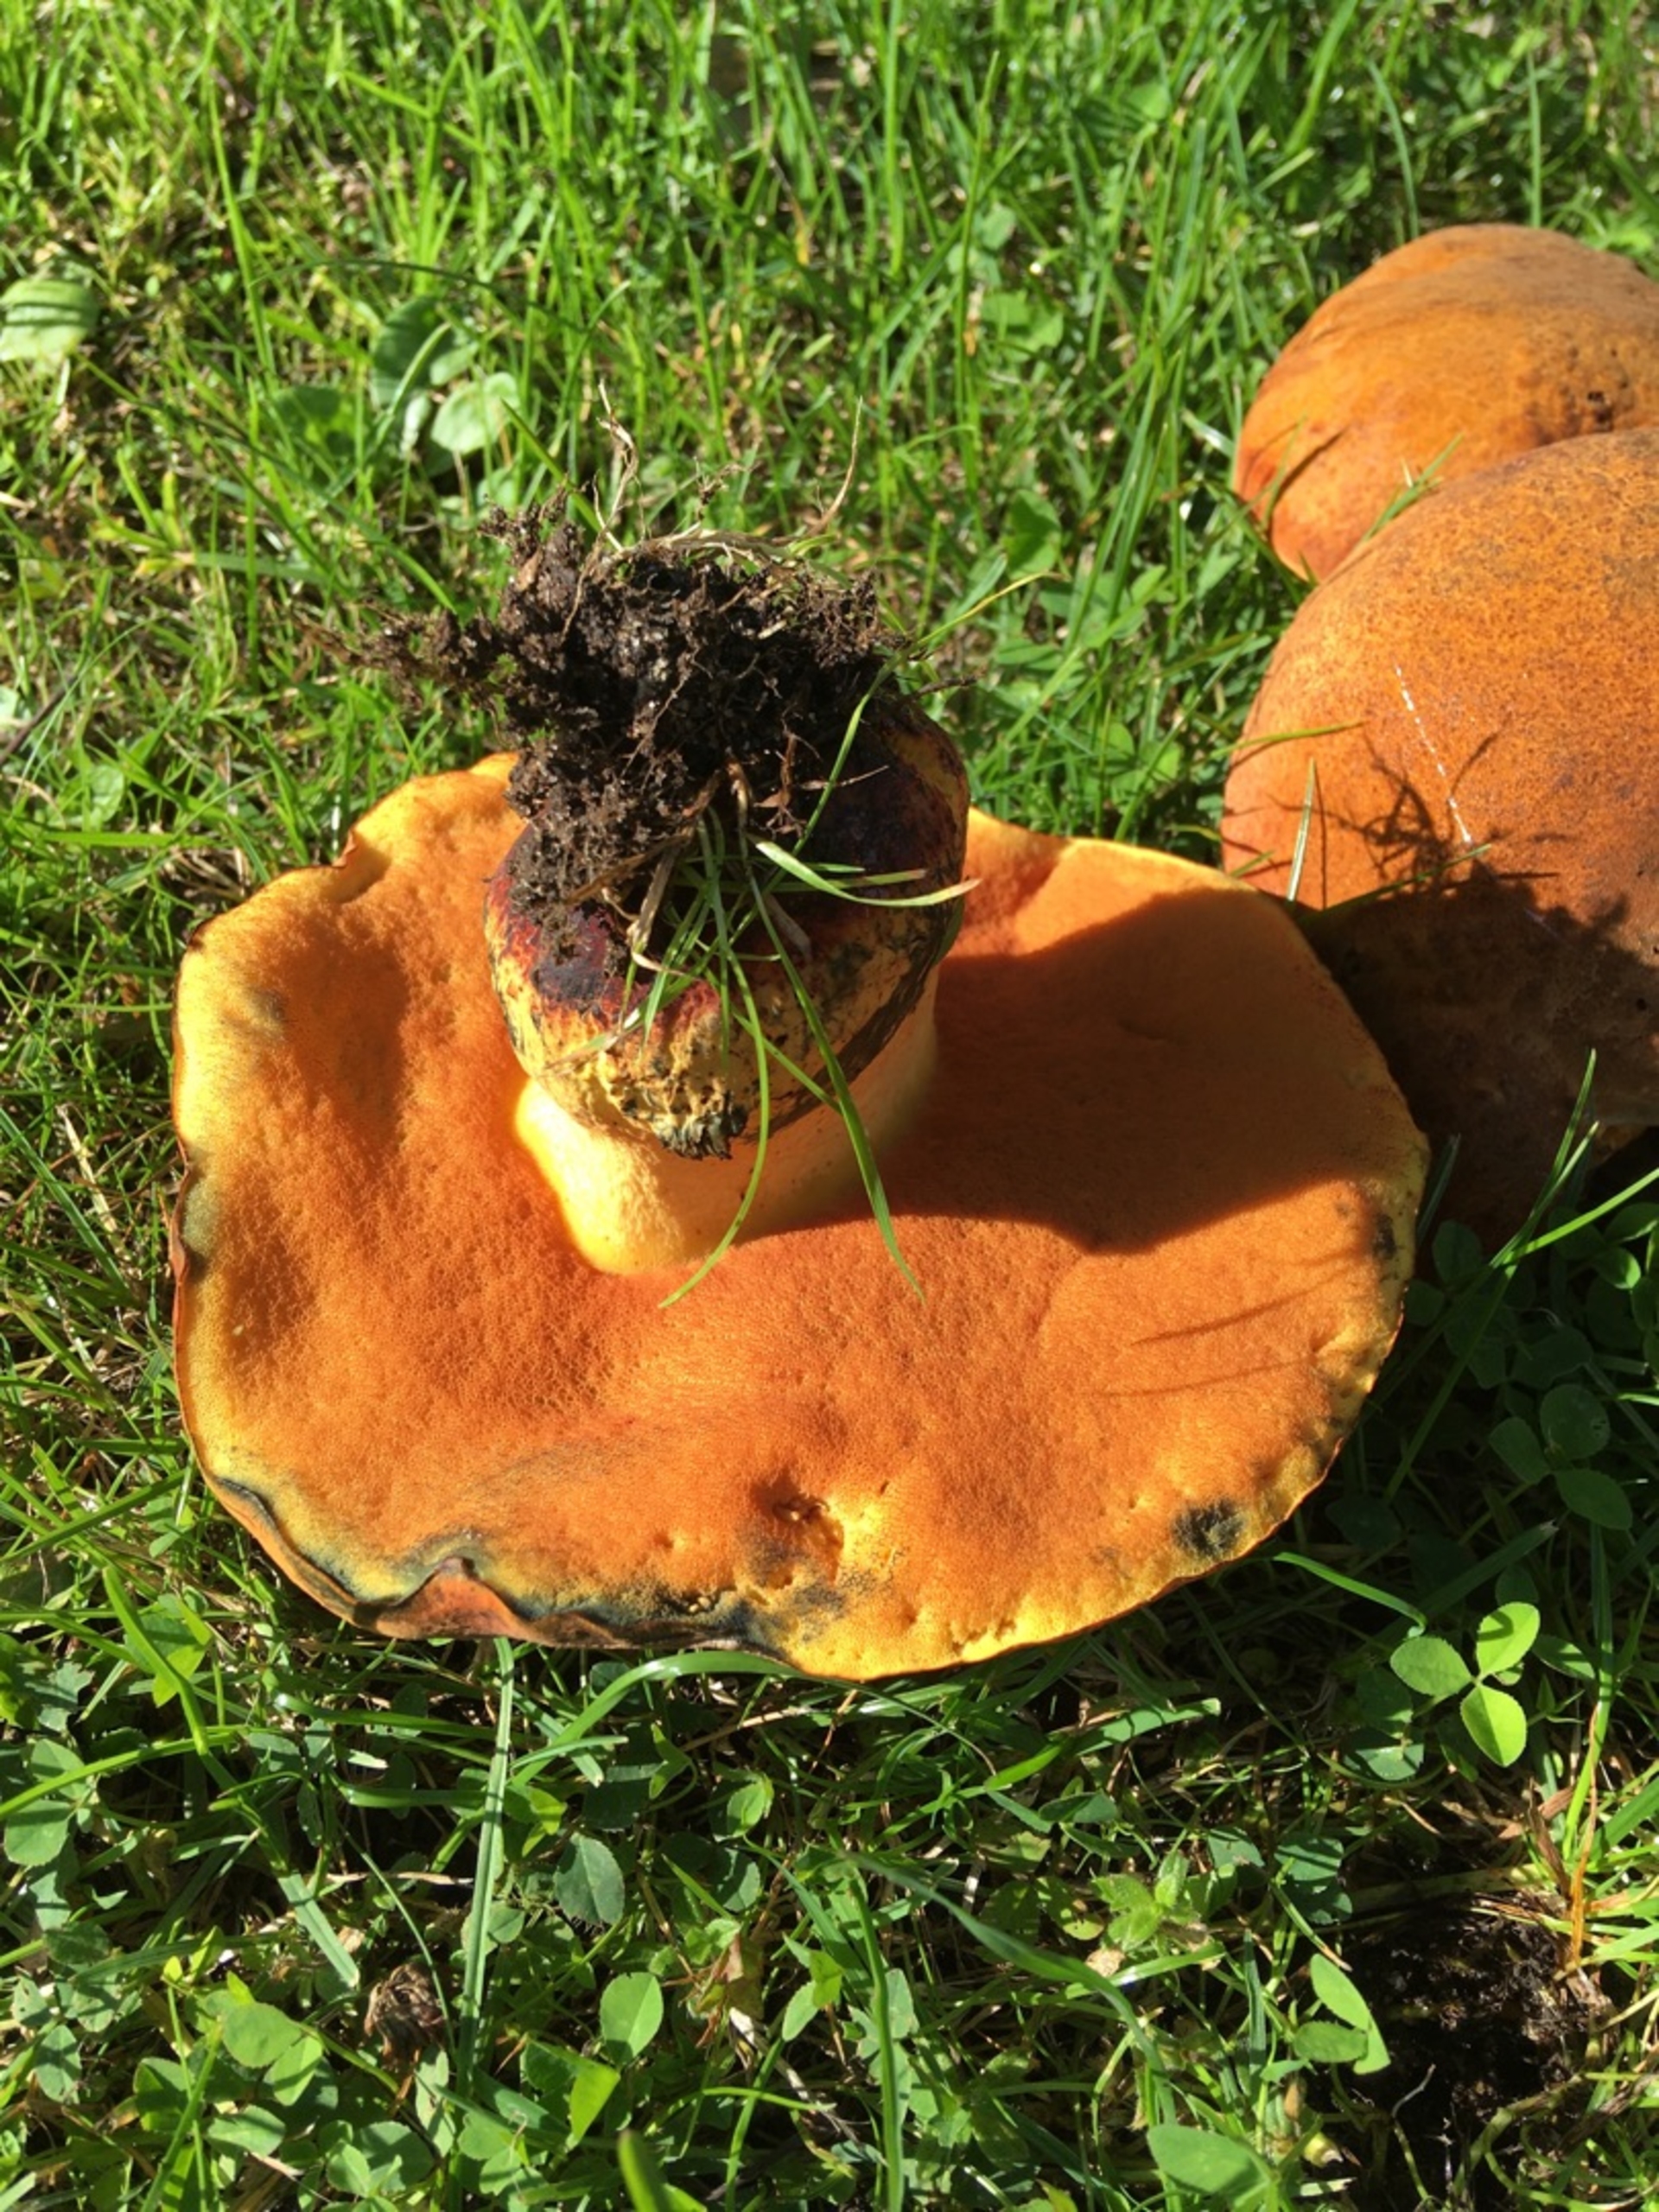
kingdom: Fungi
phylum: Basidiomycota
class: Agaricomycetes
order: Boletales
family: Boletaceae
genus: Suillellus
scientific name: Suillellus queletii
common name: Glatstokket indigorørhat
